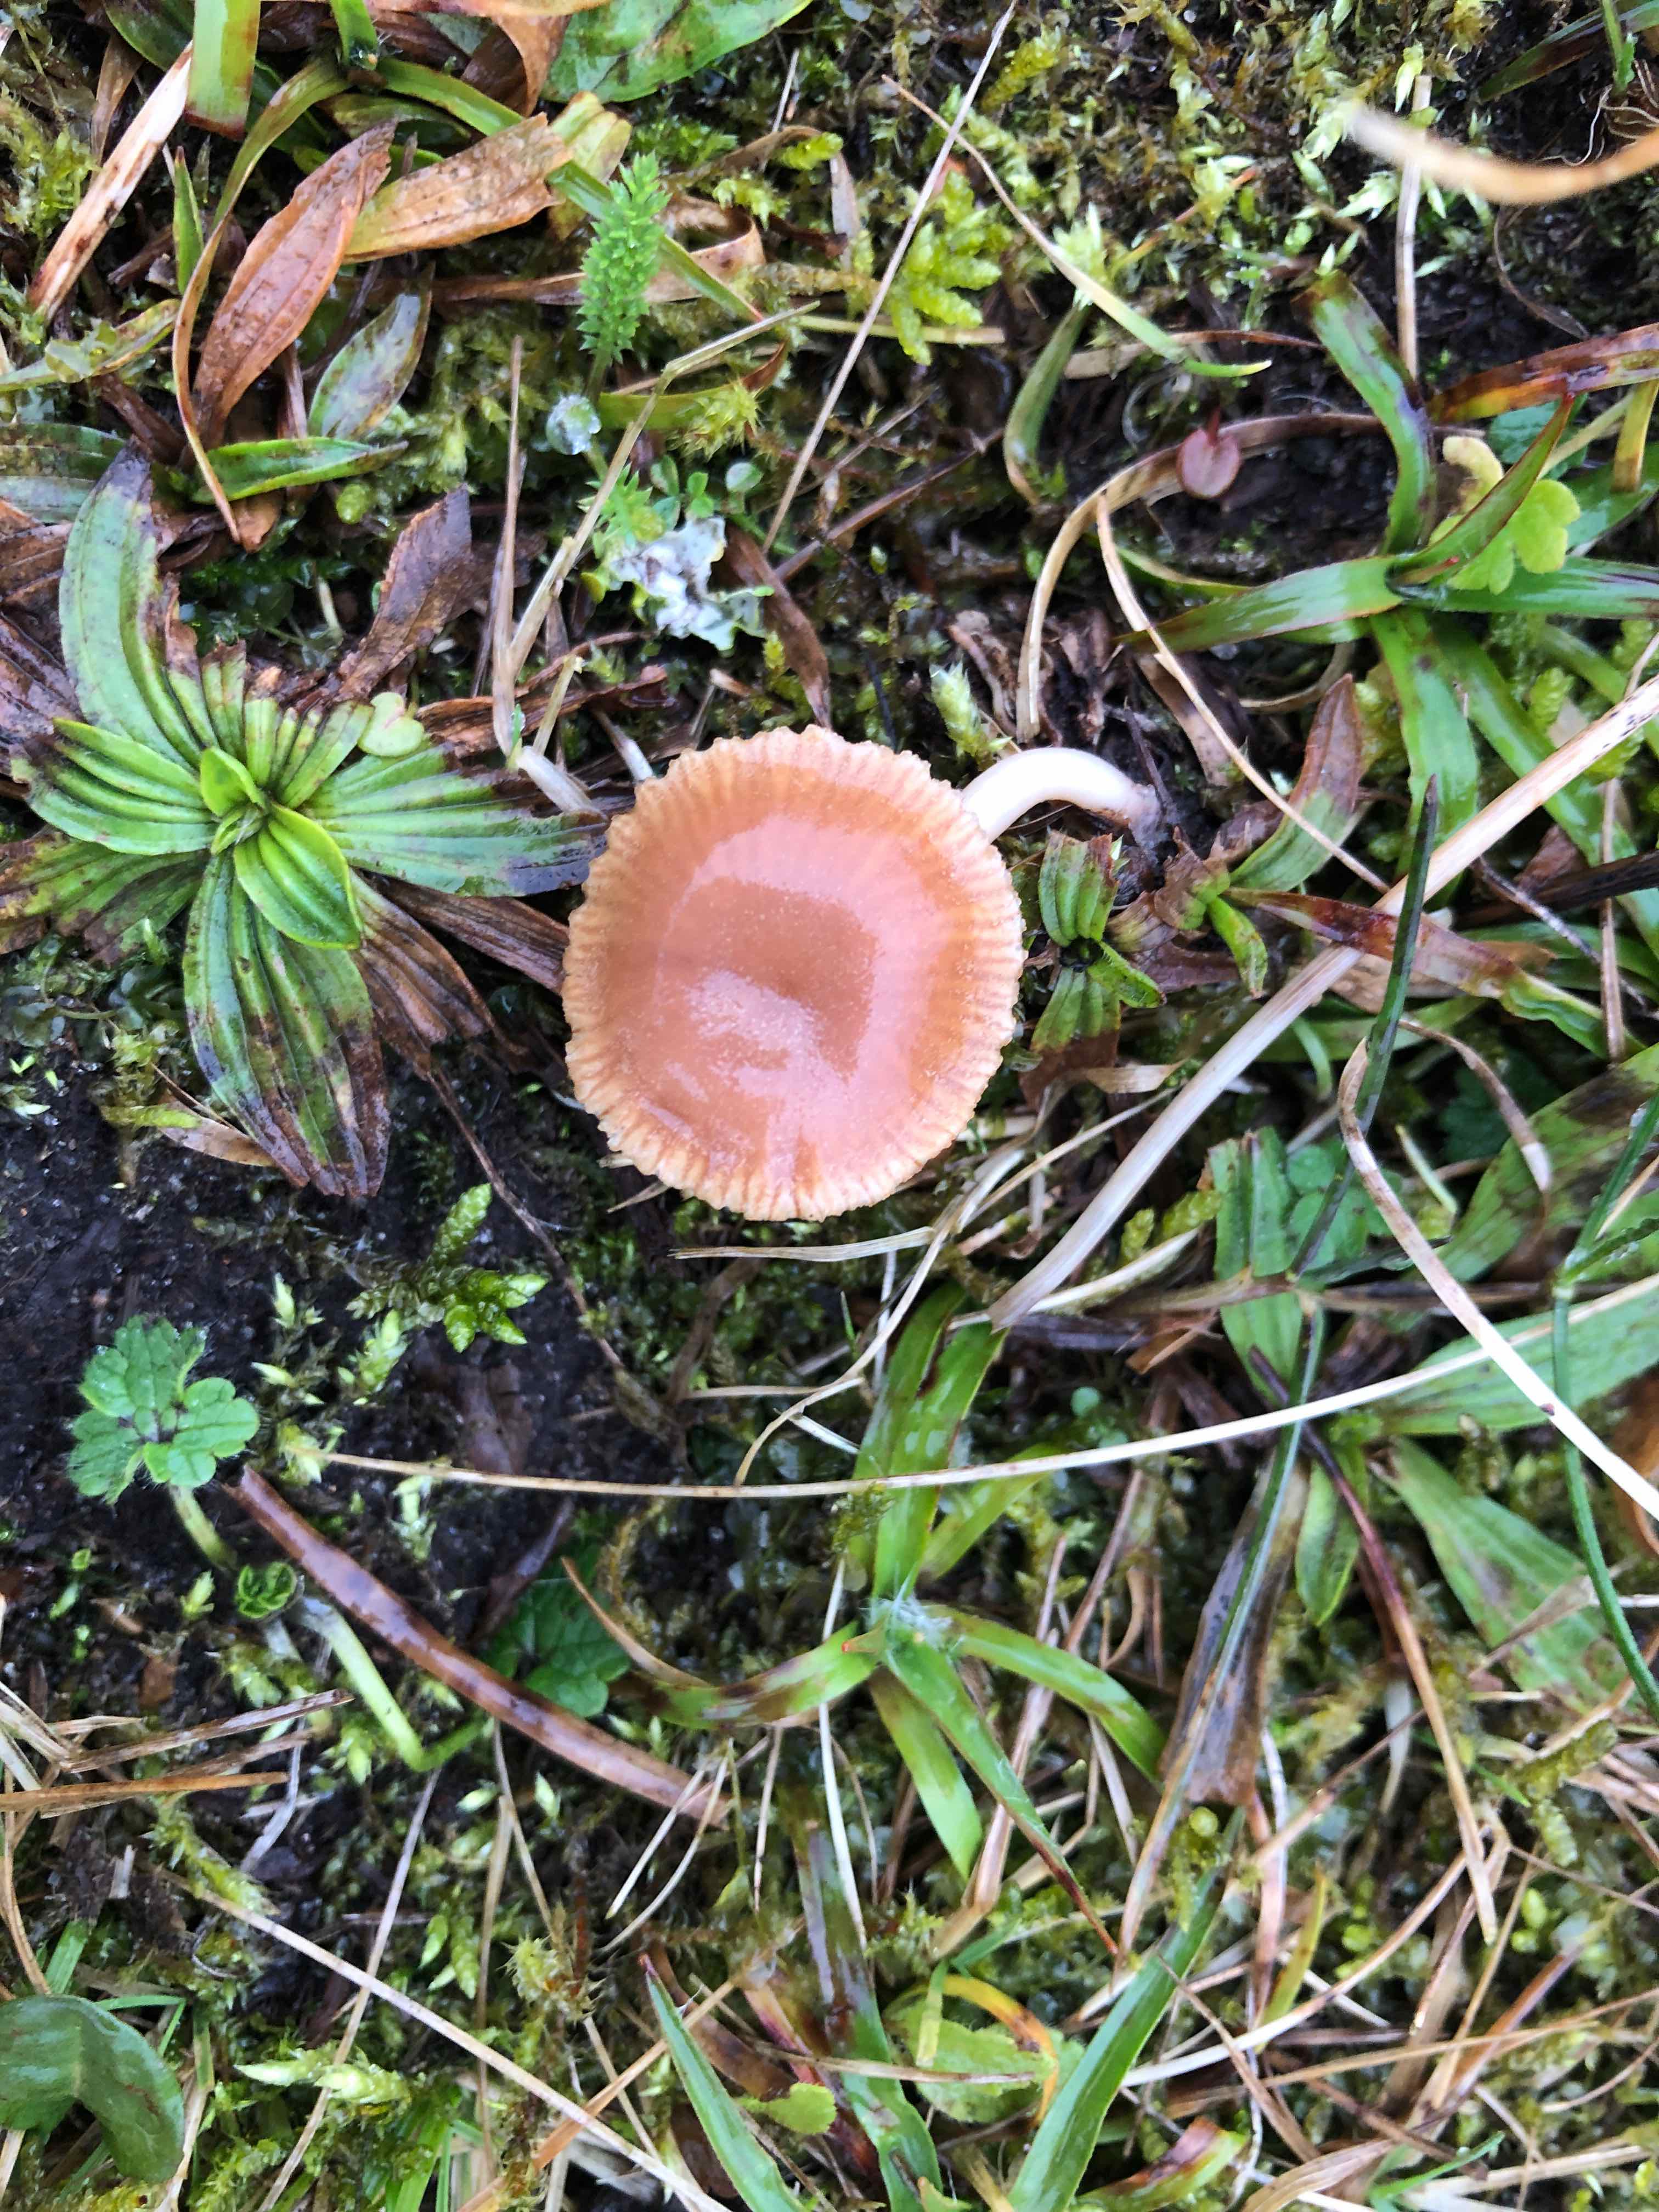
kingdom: Fungi
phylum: Basidiomycota
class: Agaricomycetes
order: Agaricales
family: Tubariaceae
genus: Tubaria
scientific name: Tubaria furfuracea
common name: kliddet fnughat
